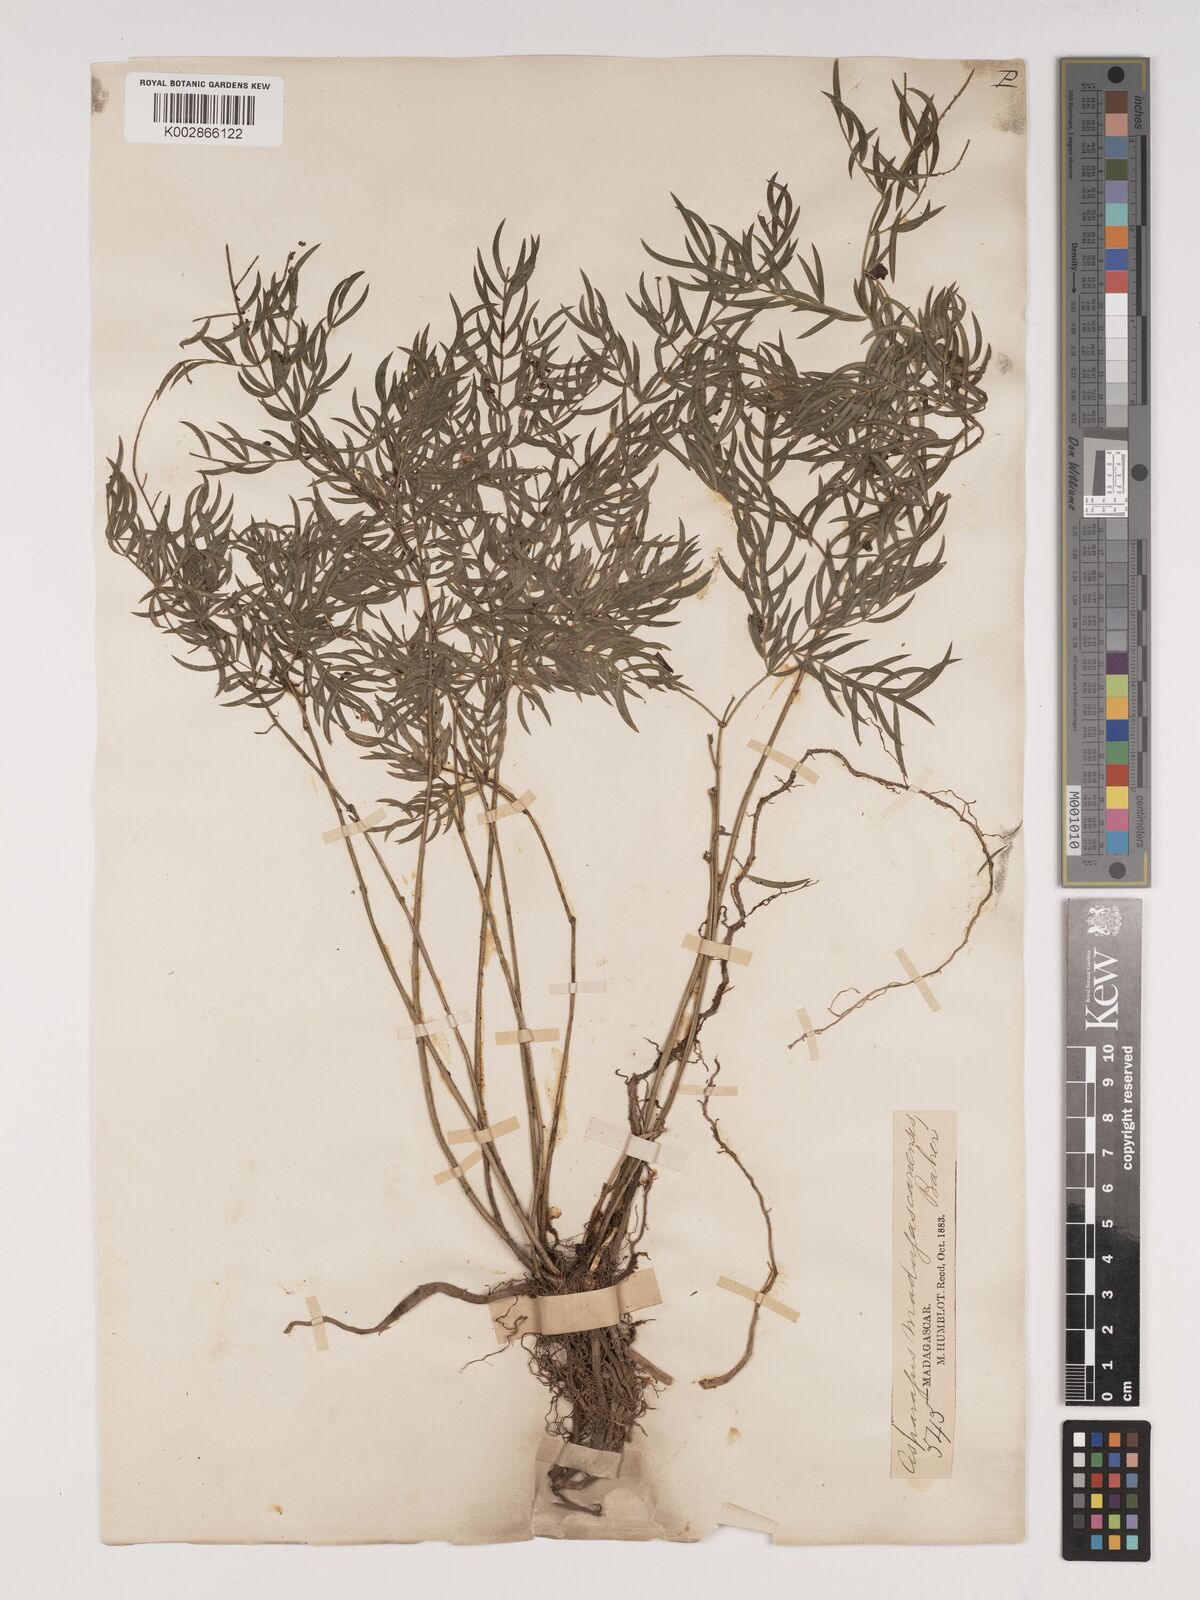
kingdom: Plantae
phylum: Tracheophyta
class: Liliopsida
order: Asparagales
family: Asparagaceae
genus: Asparagus
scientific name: Asparagus simulans
